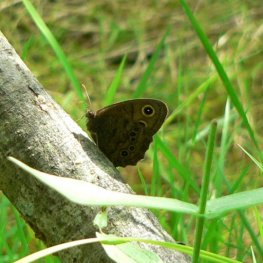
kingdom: Animalia
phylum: Arthropoda
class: Insecta
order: Lepidoptera
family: Nymphalidae
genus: Cercyonis
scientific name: Cercyonis pegala
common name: Common Wood-Nymph
